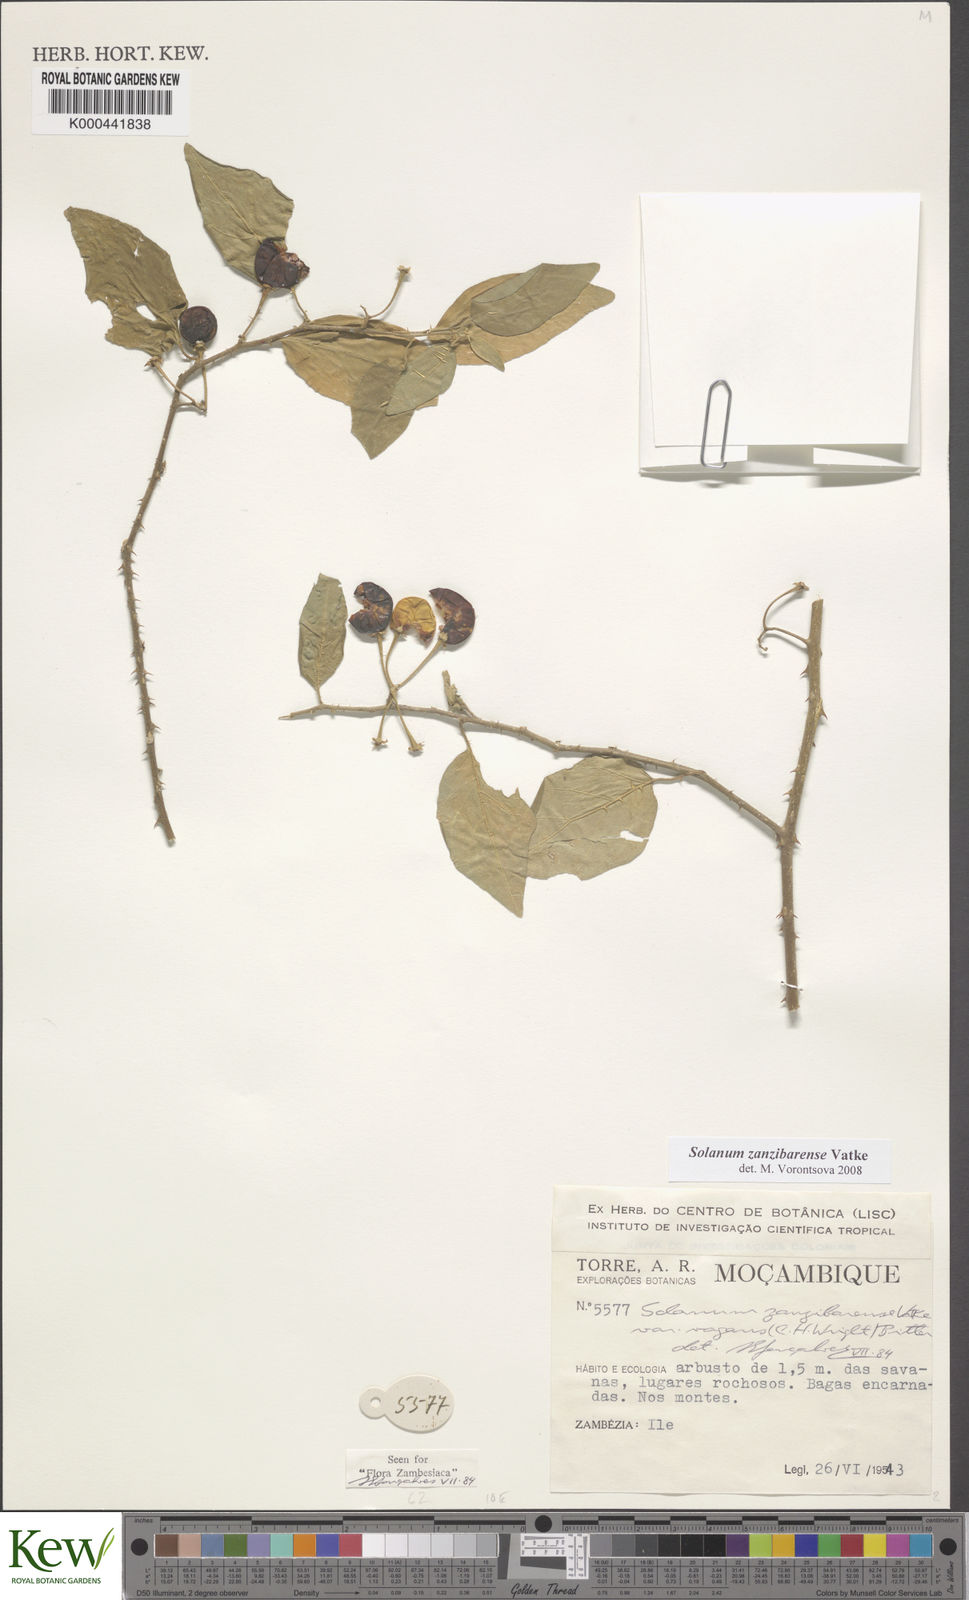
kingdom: Plantae
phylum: Tracheophyta
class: Magnoliopsida
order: Solanales
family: Solanaceae
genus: Solanum
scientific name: Solanum zanzibarense
